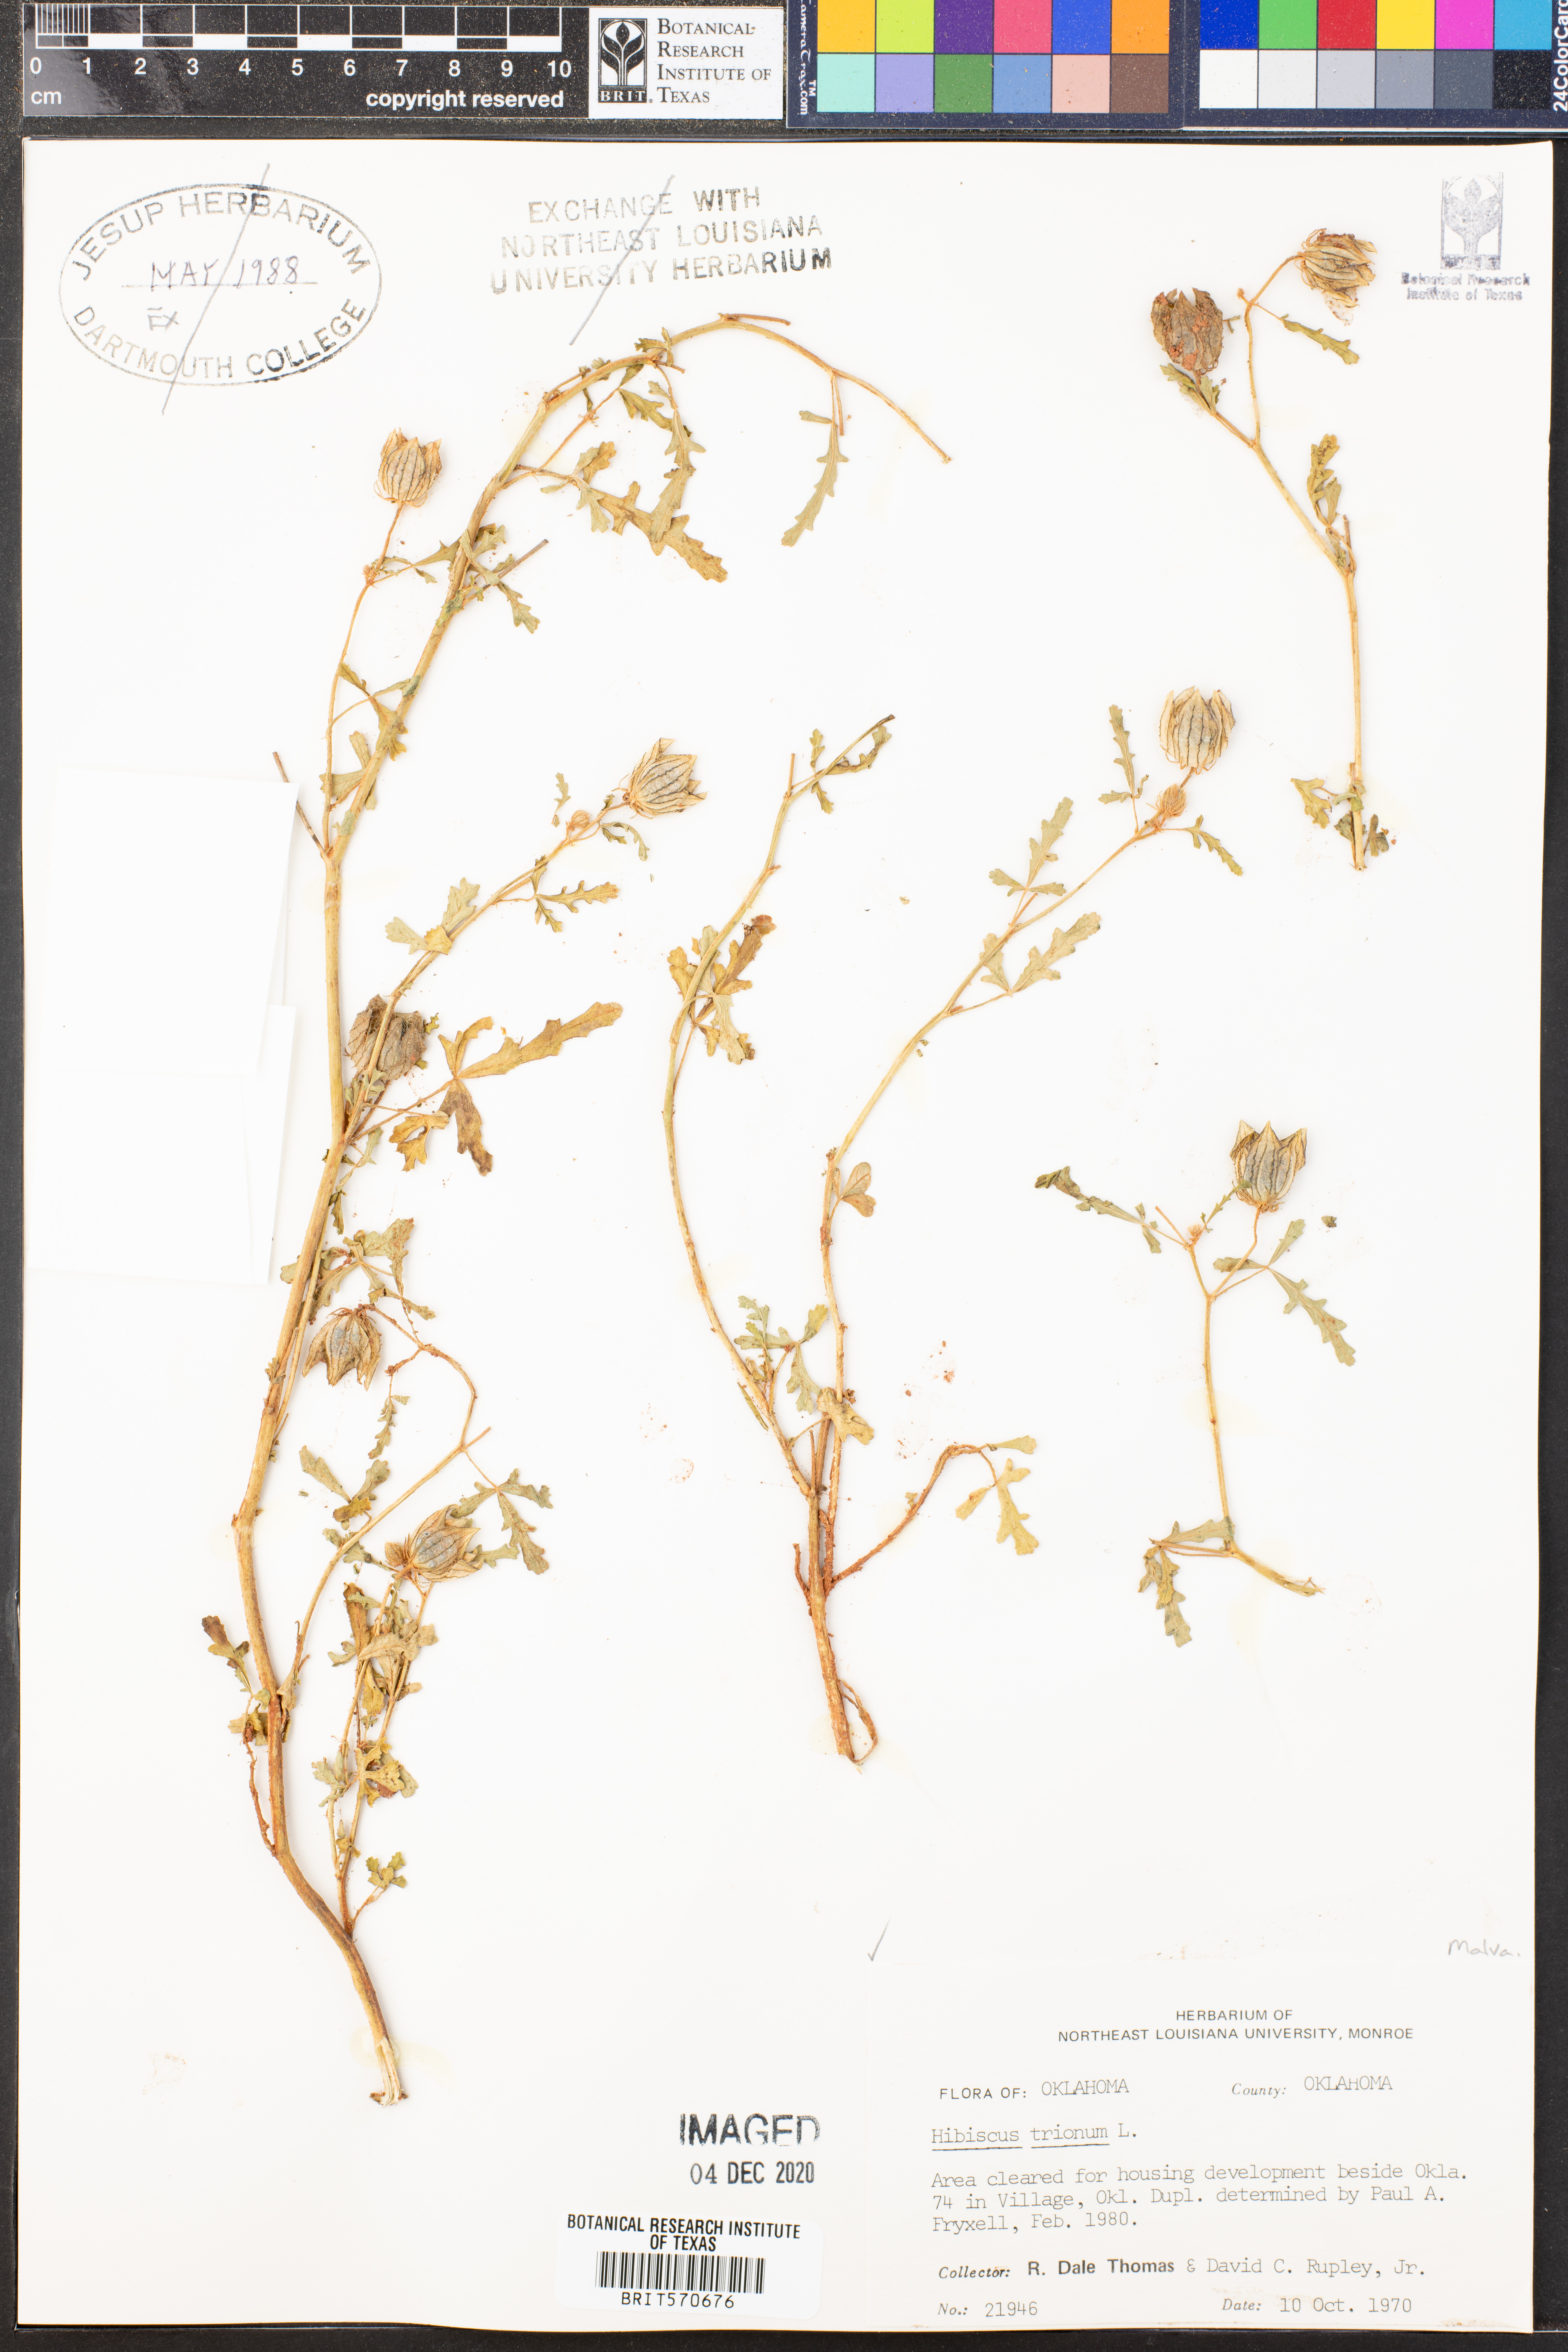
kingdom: Plantae
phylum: Tracheophyta
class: Magnoliopsida
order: Malvales
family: Malvaceae
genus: Hibiscus
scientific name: Hibiscus trionum
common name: Bladder ketmia
